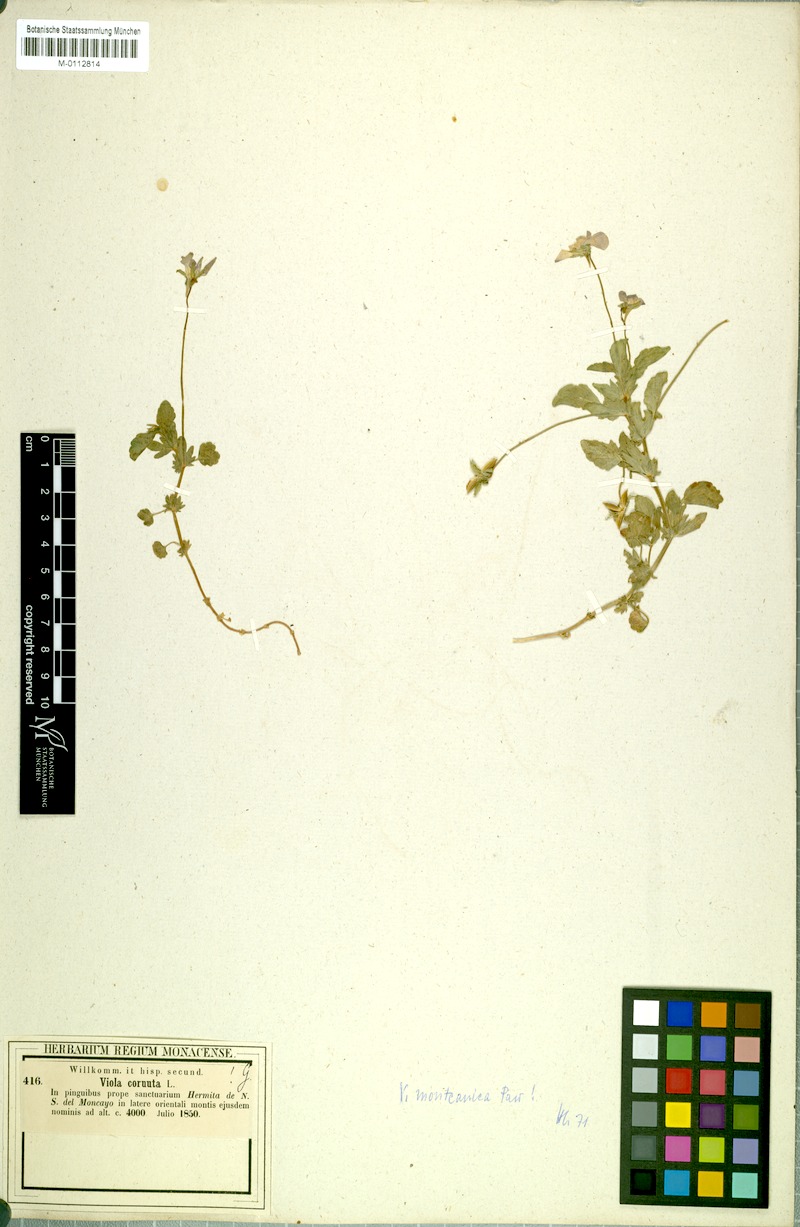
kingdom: Plantae
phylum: Tracheophyta
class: Magnoliopsida
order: Malpighiales
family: Violaceae
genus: Viola
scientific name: Viola moncaunica
